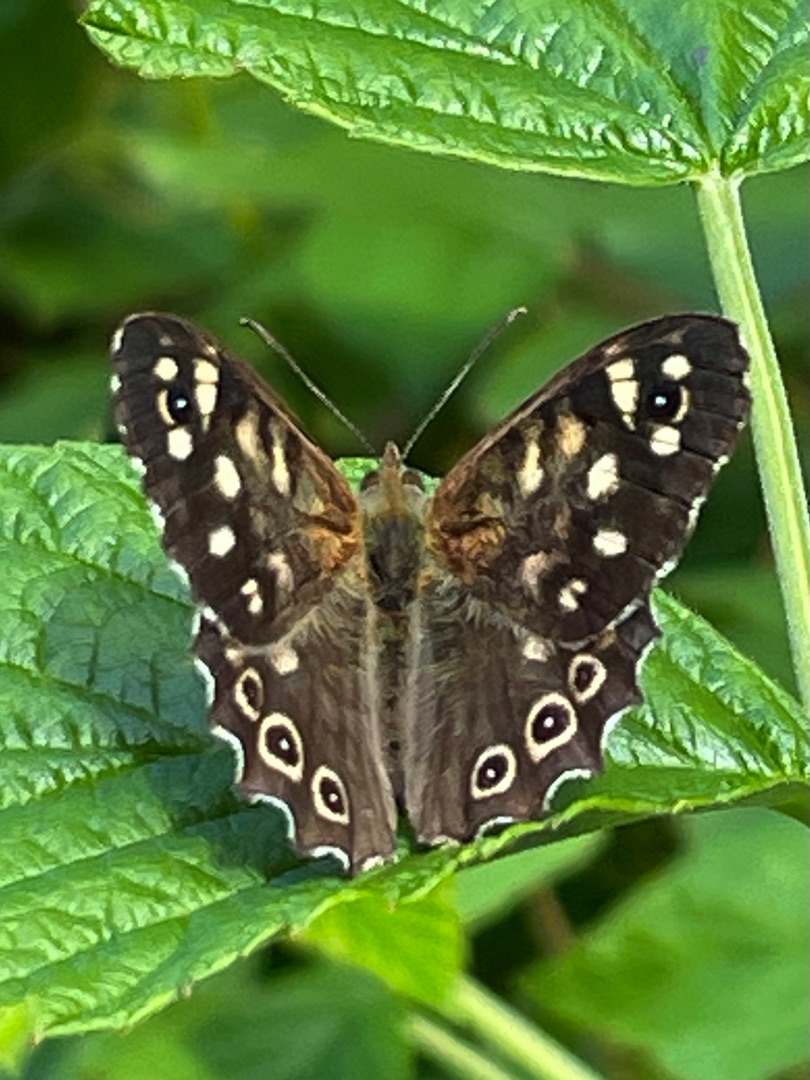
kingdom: Animalia
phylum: Arthropoda
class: Insecta
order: Lepidoptera
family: Nymphalidae
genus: Pararge
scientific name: Pararge aegeria
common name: Skovrandøje
